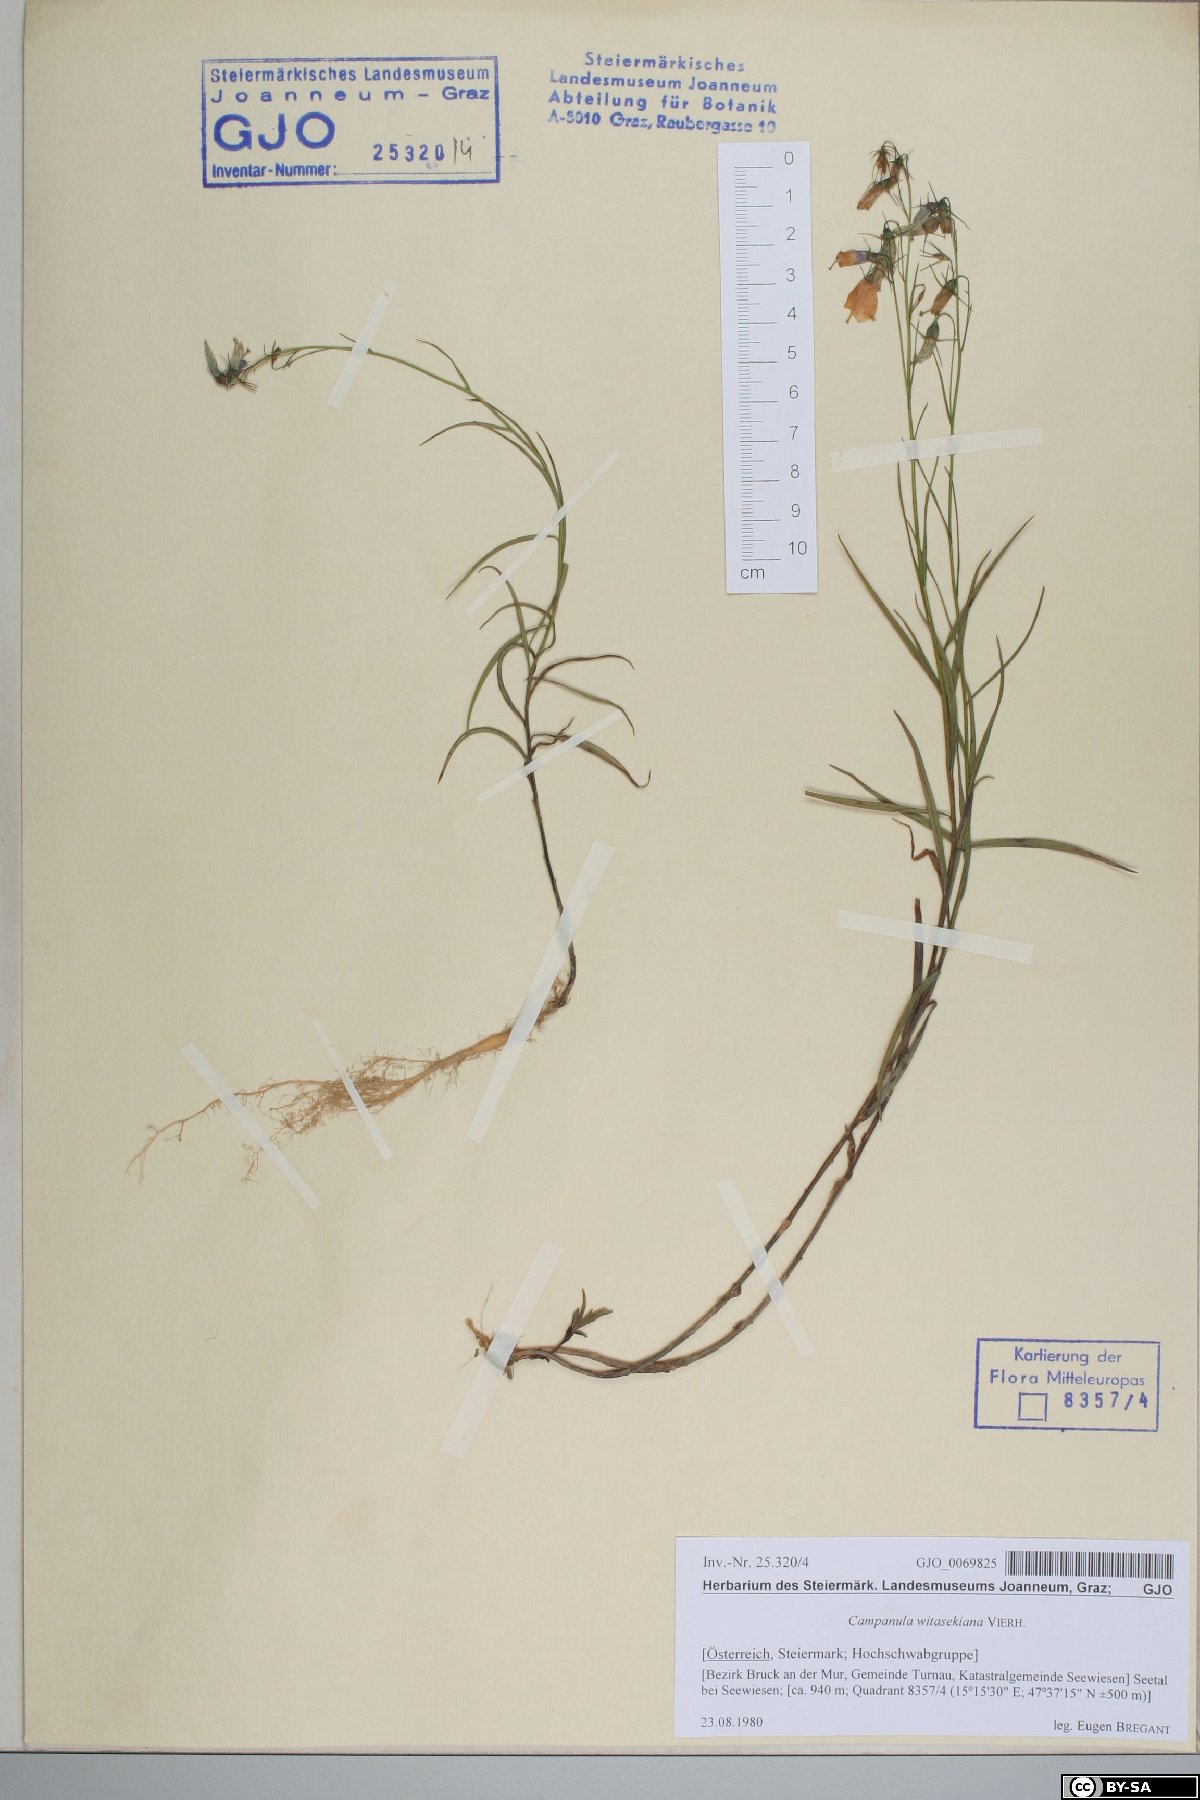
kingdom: Plantae
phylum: Tracheophyta
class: Magnoliopsida
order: Asterales
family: Campanulaceae
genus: Campanula
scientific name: Campanula witasekiana
